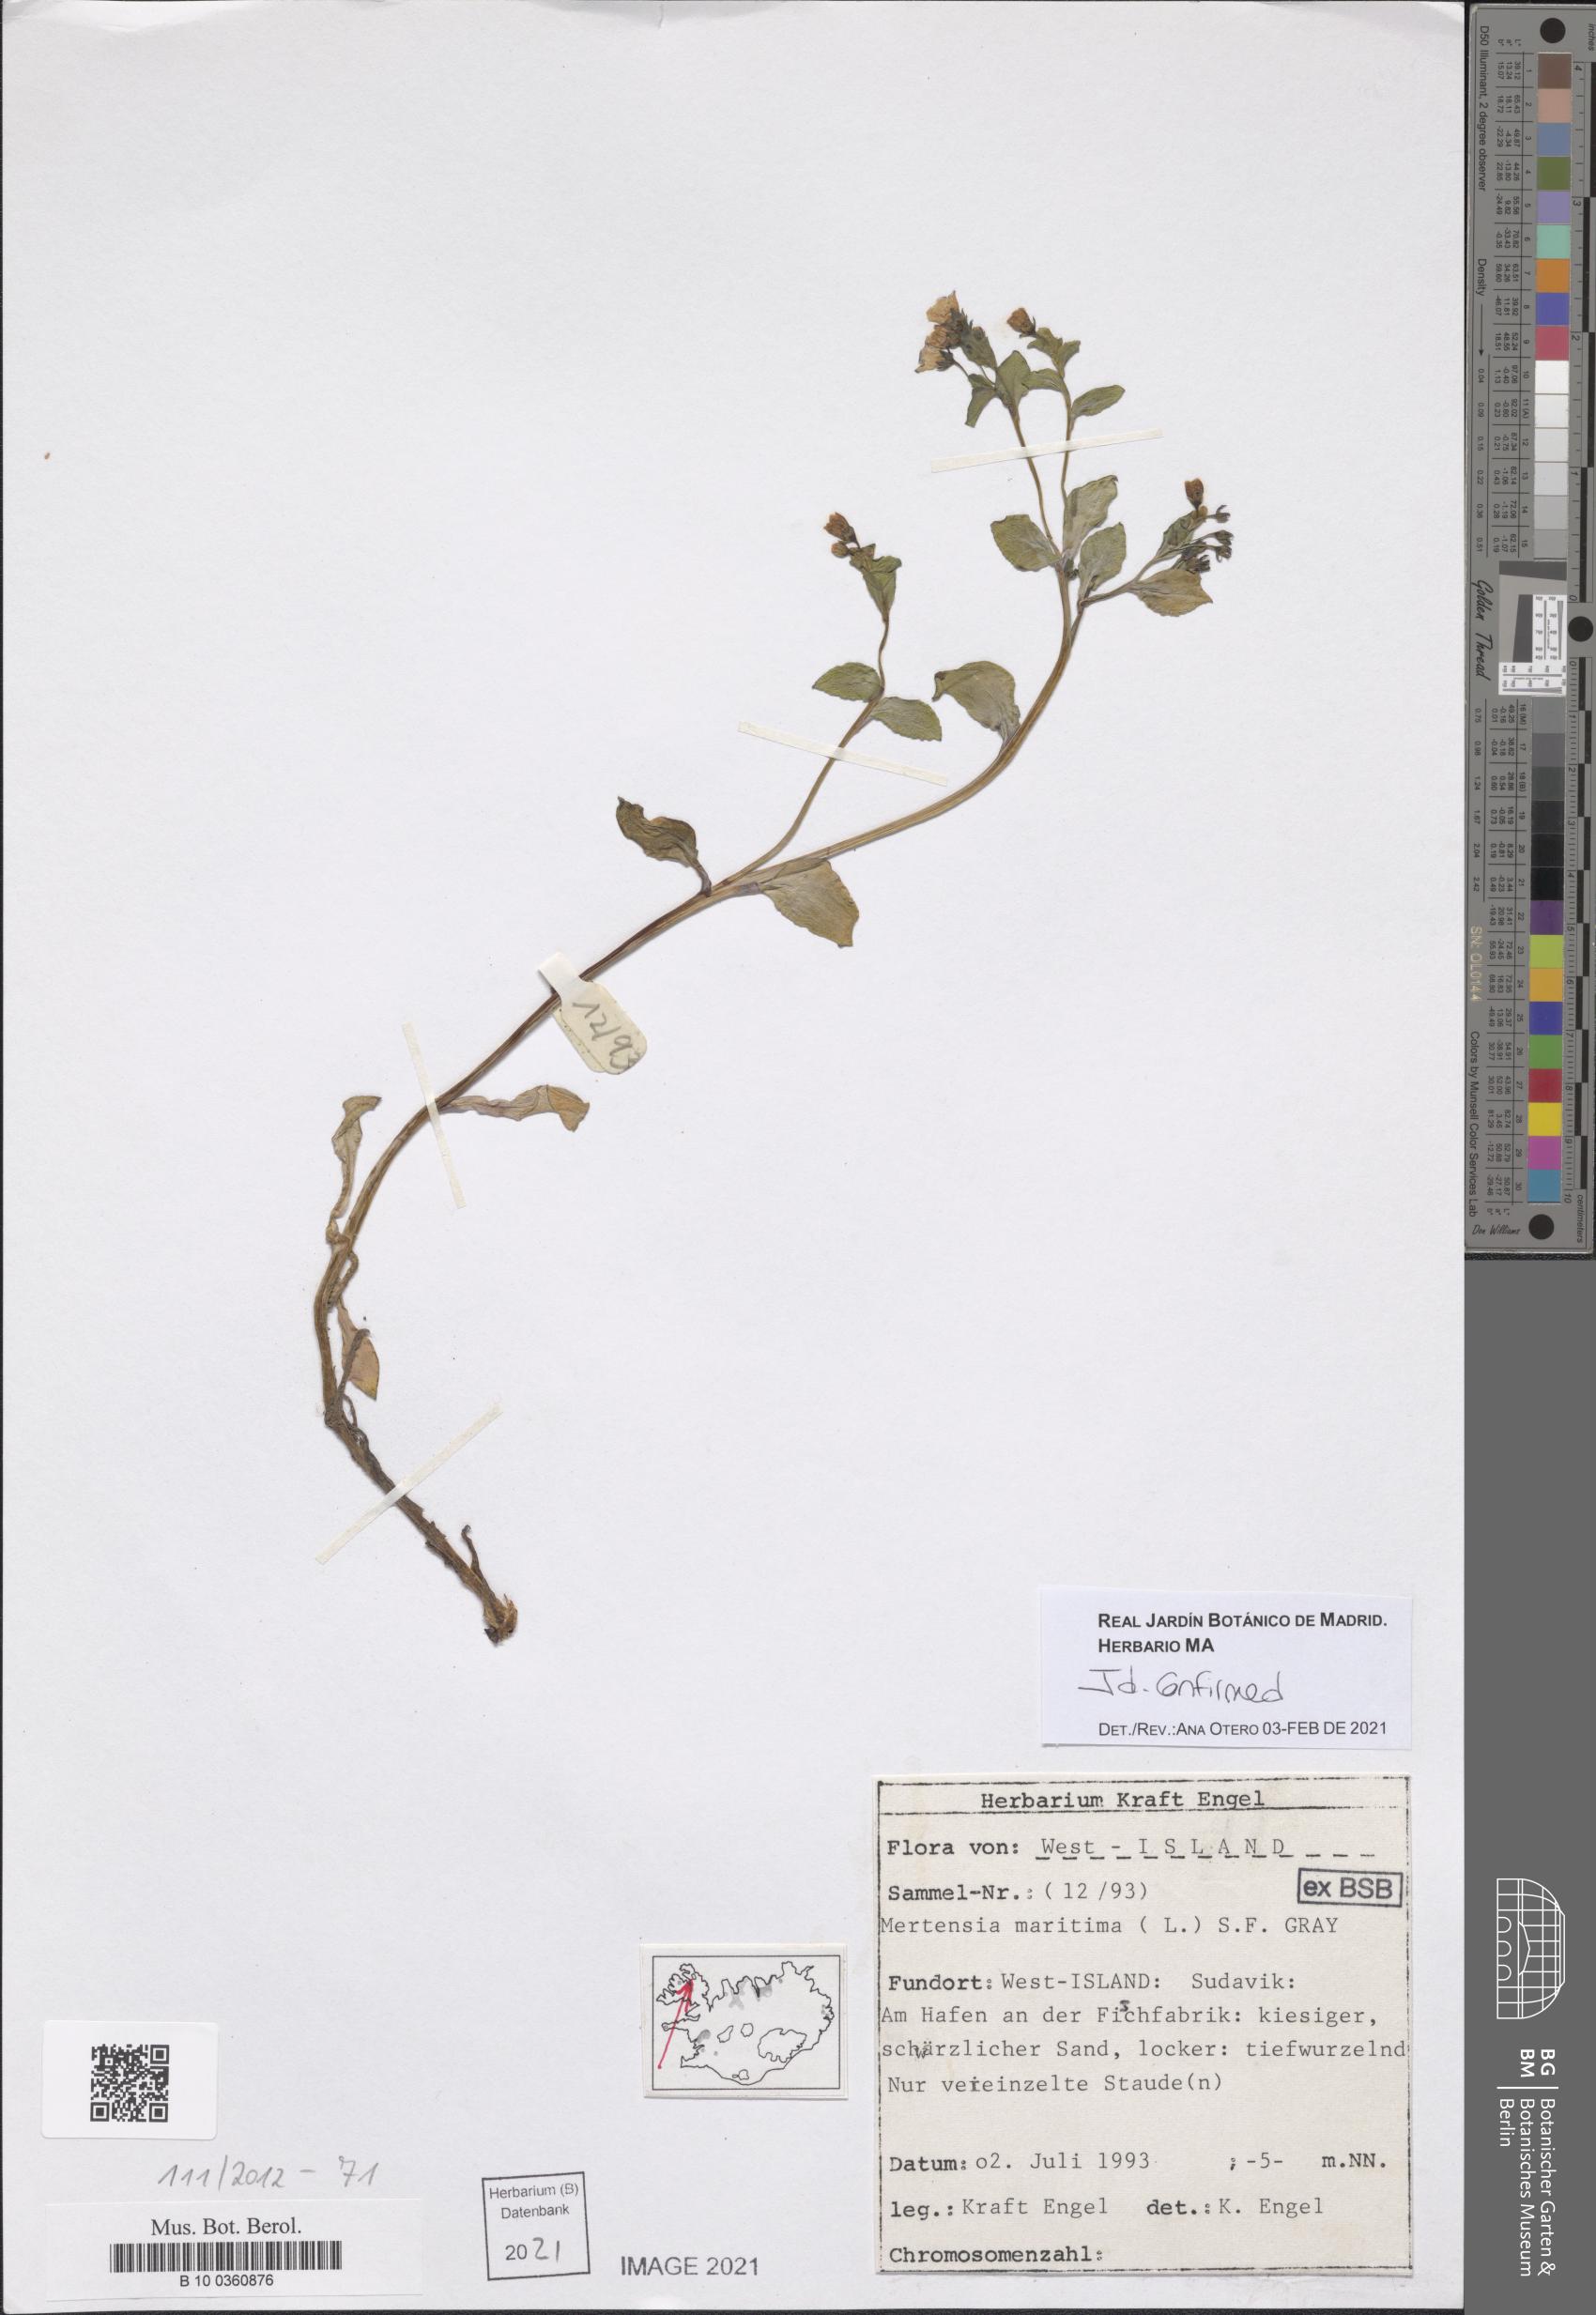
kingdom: Plantae
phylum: Tracheophyta
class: Magnoliopsida
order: Boraginales
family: Boraginaceae
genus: Mertensia
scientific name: Mertensia maritima
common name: Oysterplant
